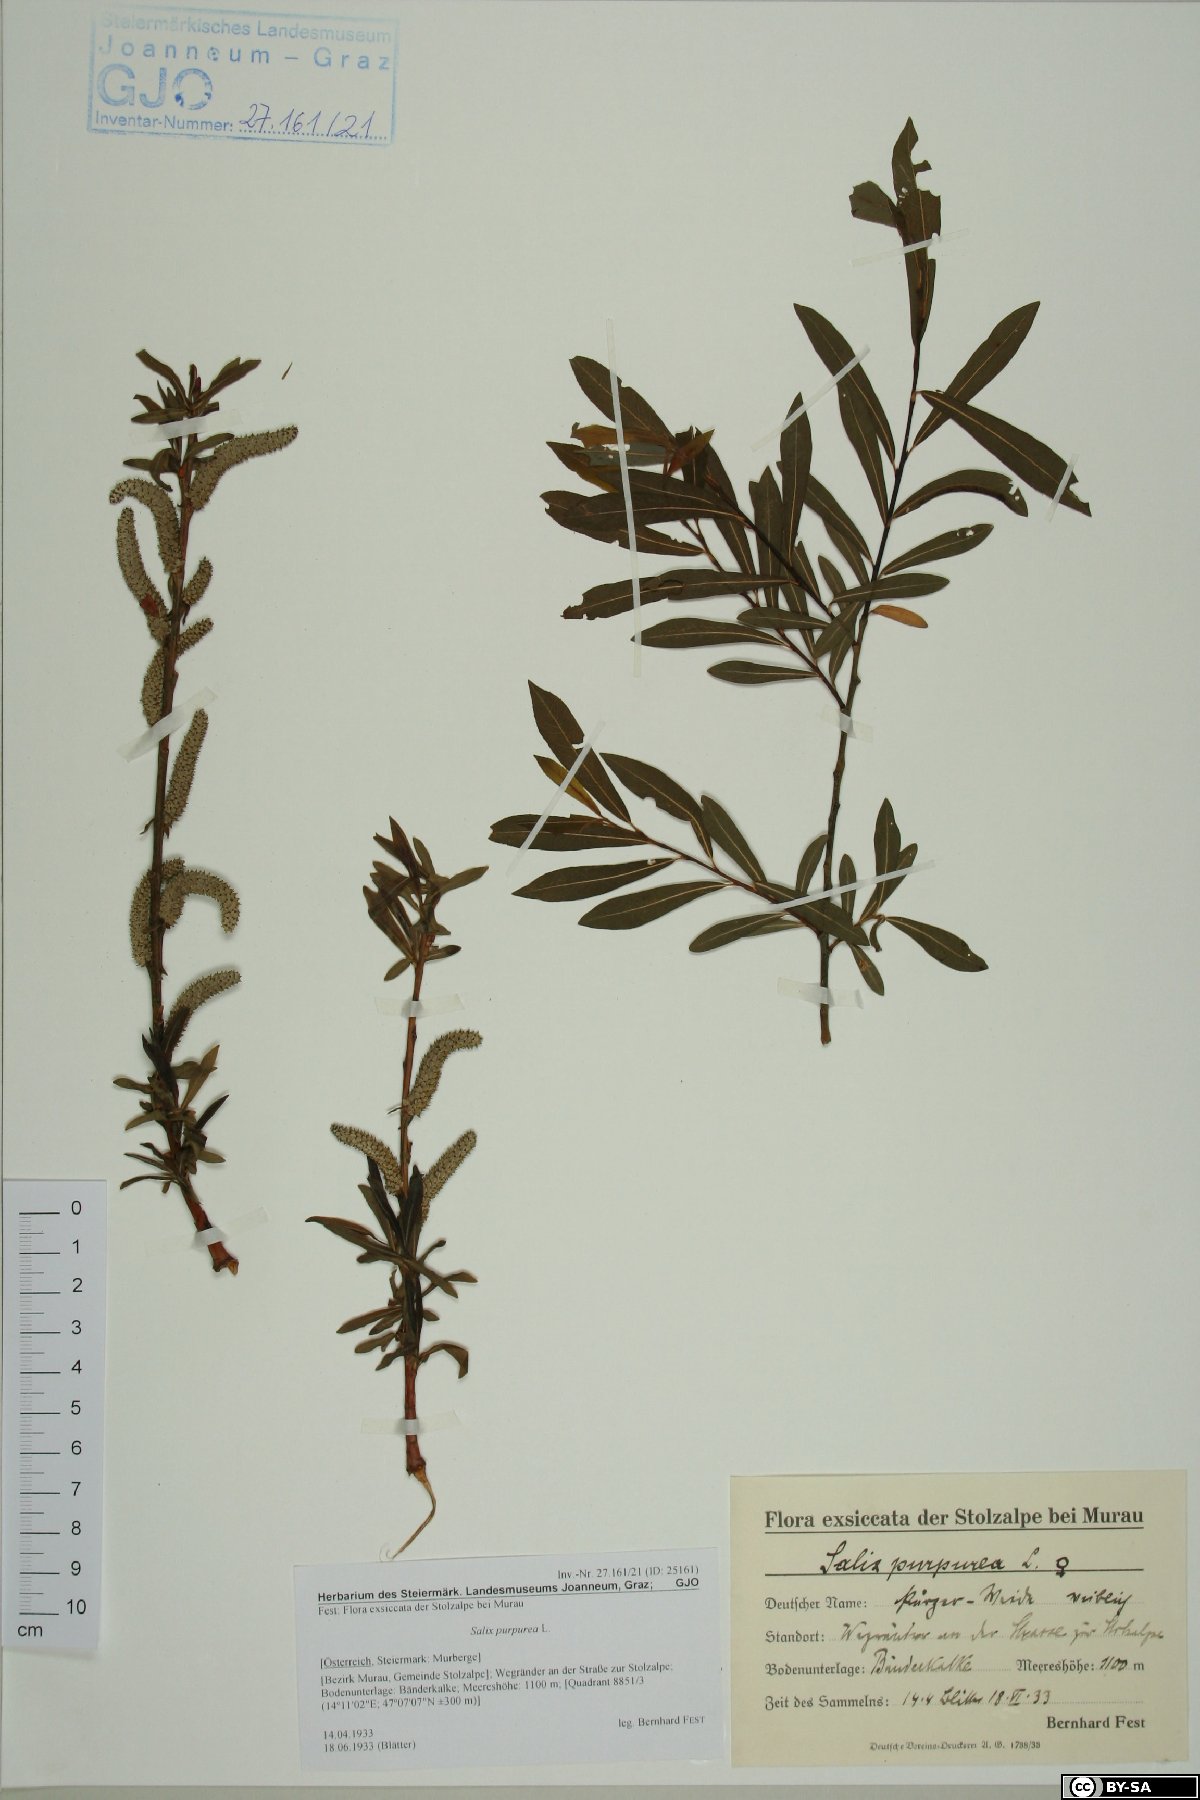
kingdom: Plantae
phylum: Tracheophyta
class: Magnoliopsida
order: Malpighiales
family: Salicaceae
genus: Salix
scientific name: Salix purpurea
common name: Purple willow
